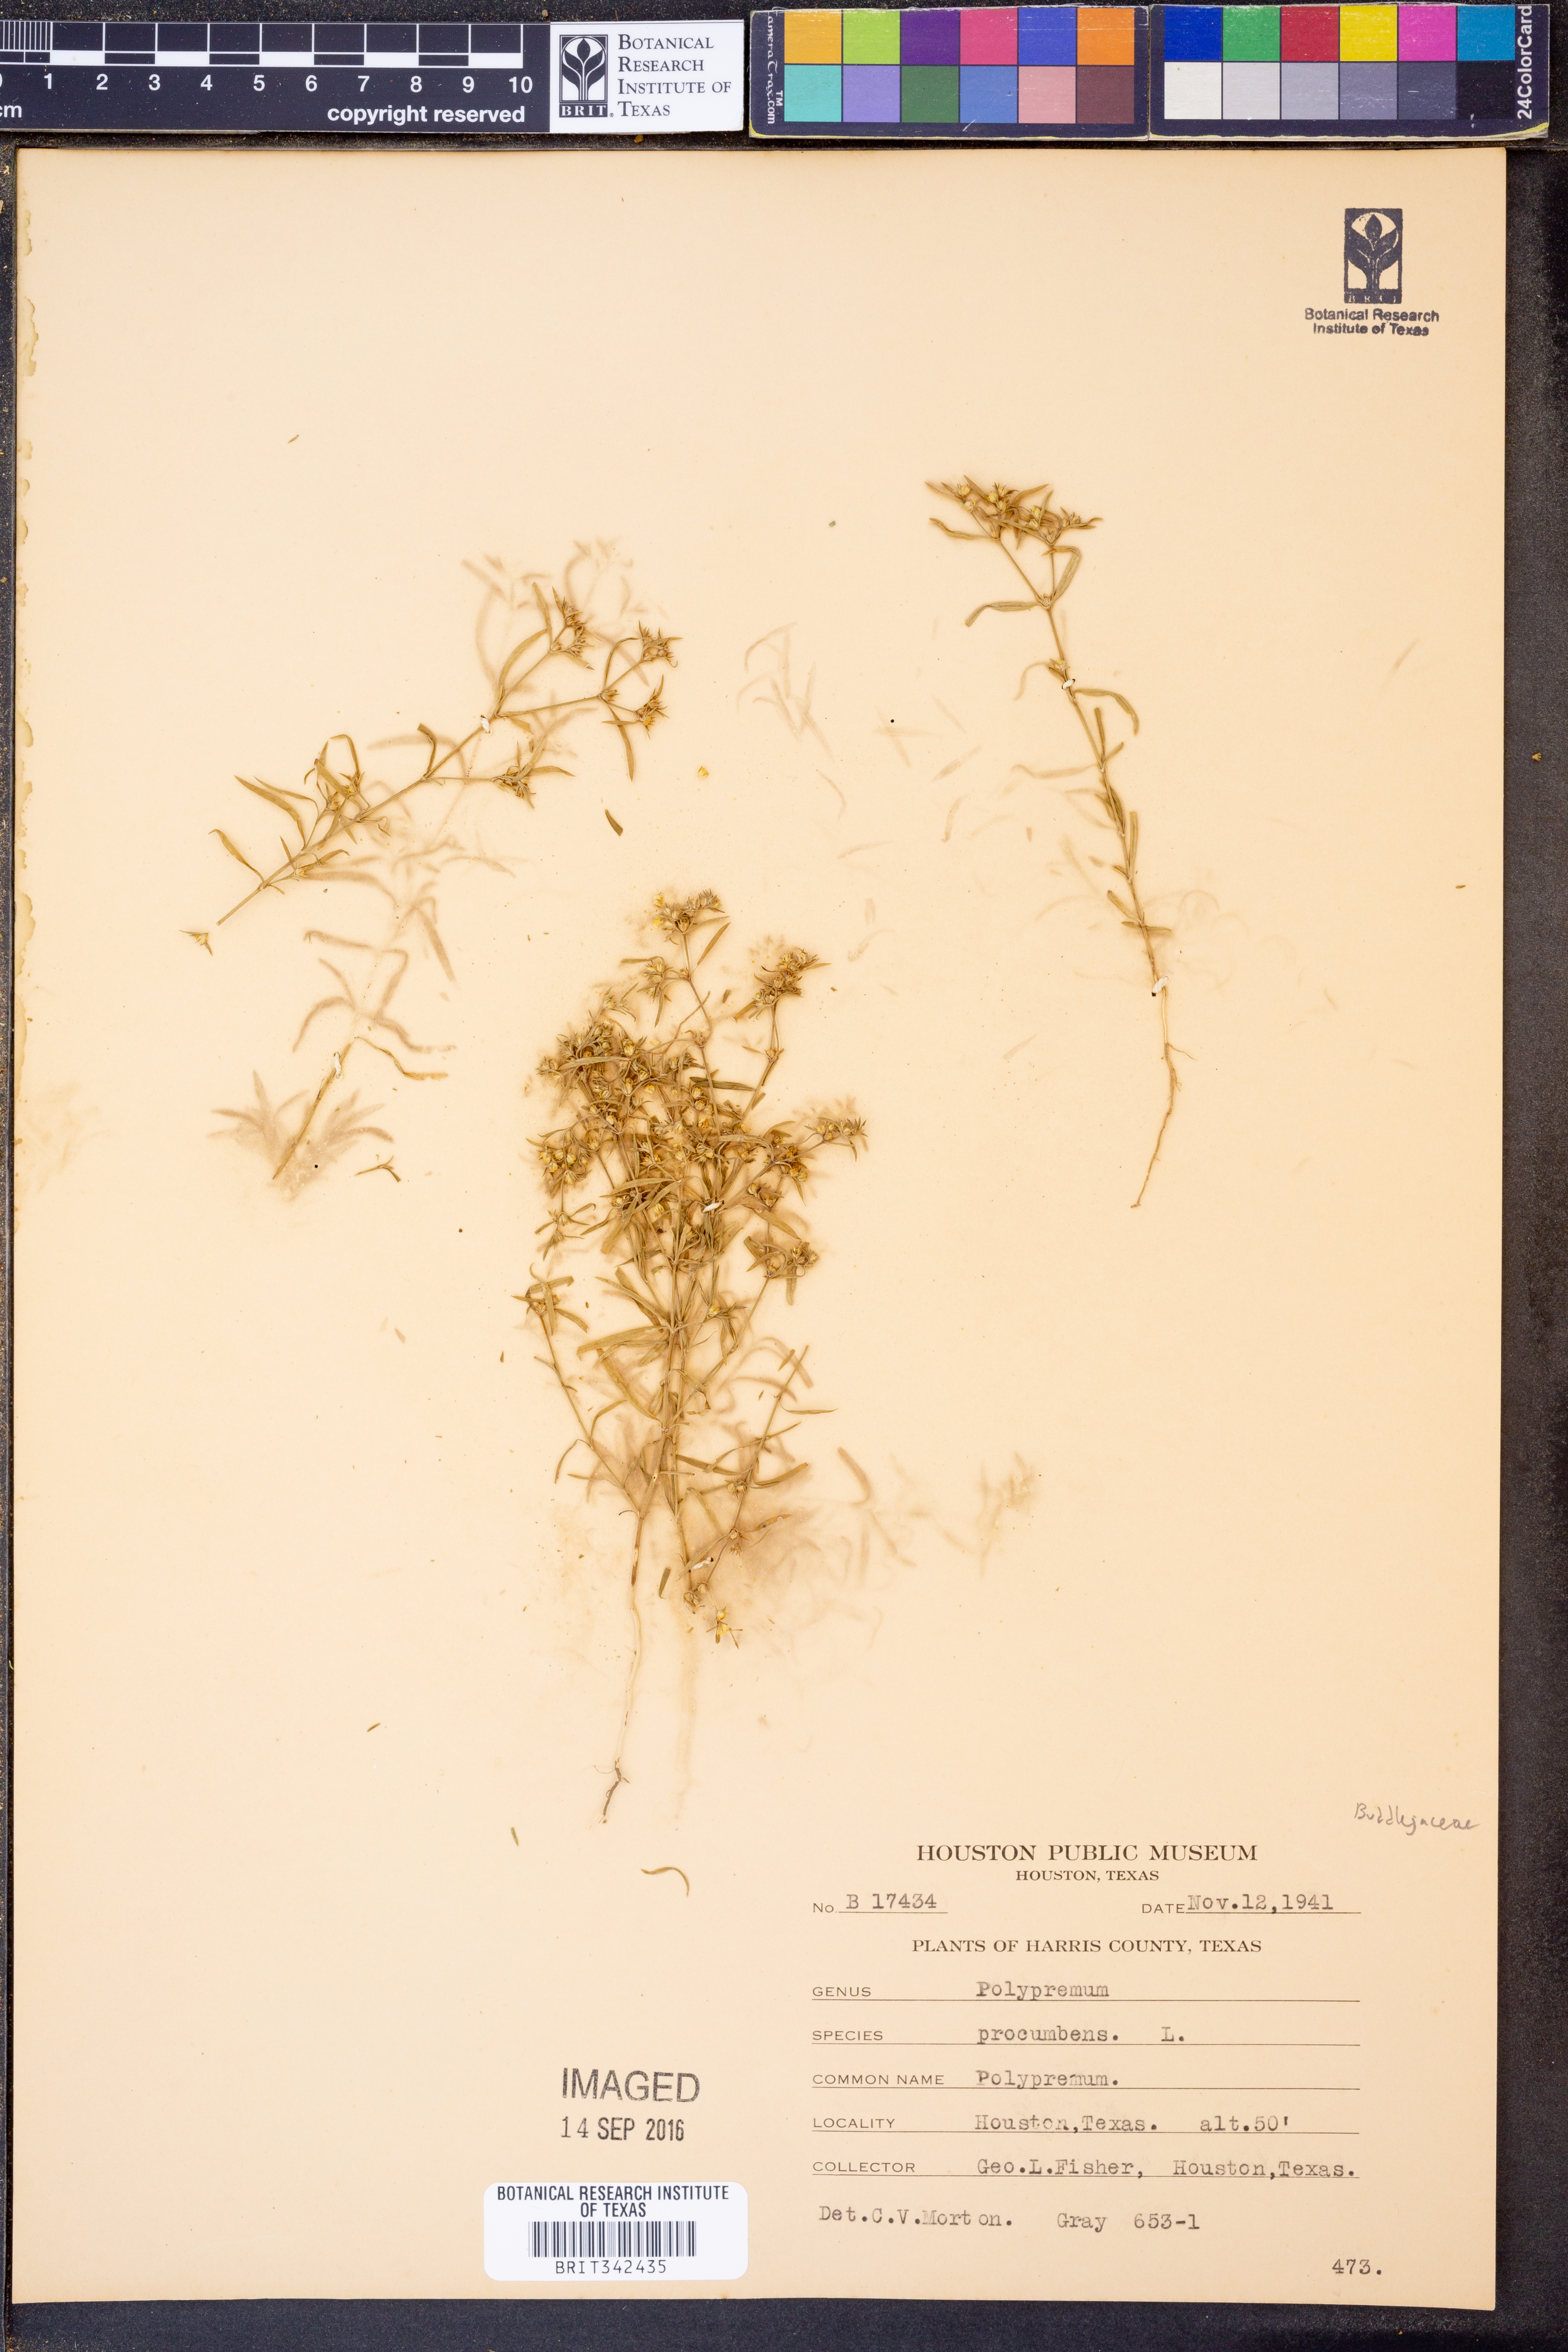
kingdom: Plantae
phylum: Tracheophyta
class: Magnoliopsida
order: Lamiales
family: Tetrachondraceae
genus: Polypremum
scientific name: Polypremum procumbens
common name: Juniper-leaf
